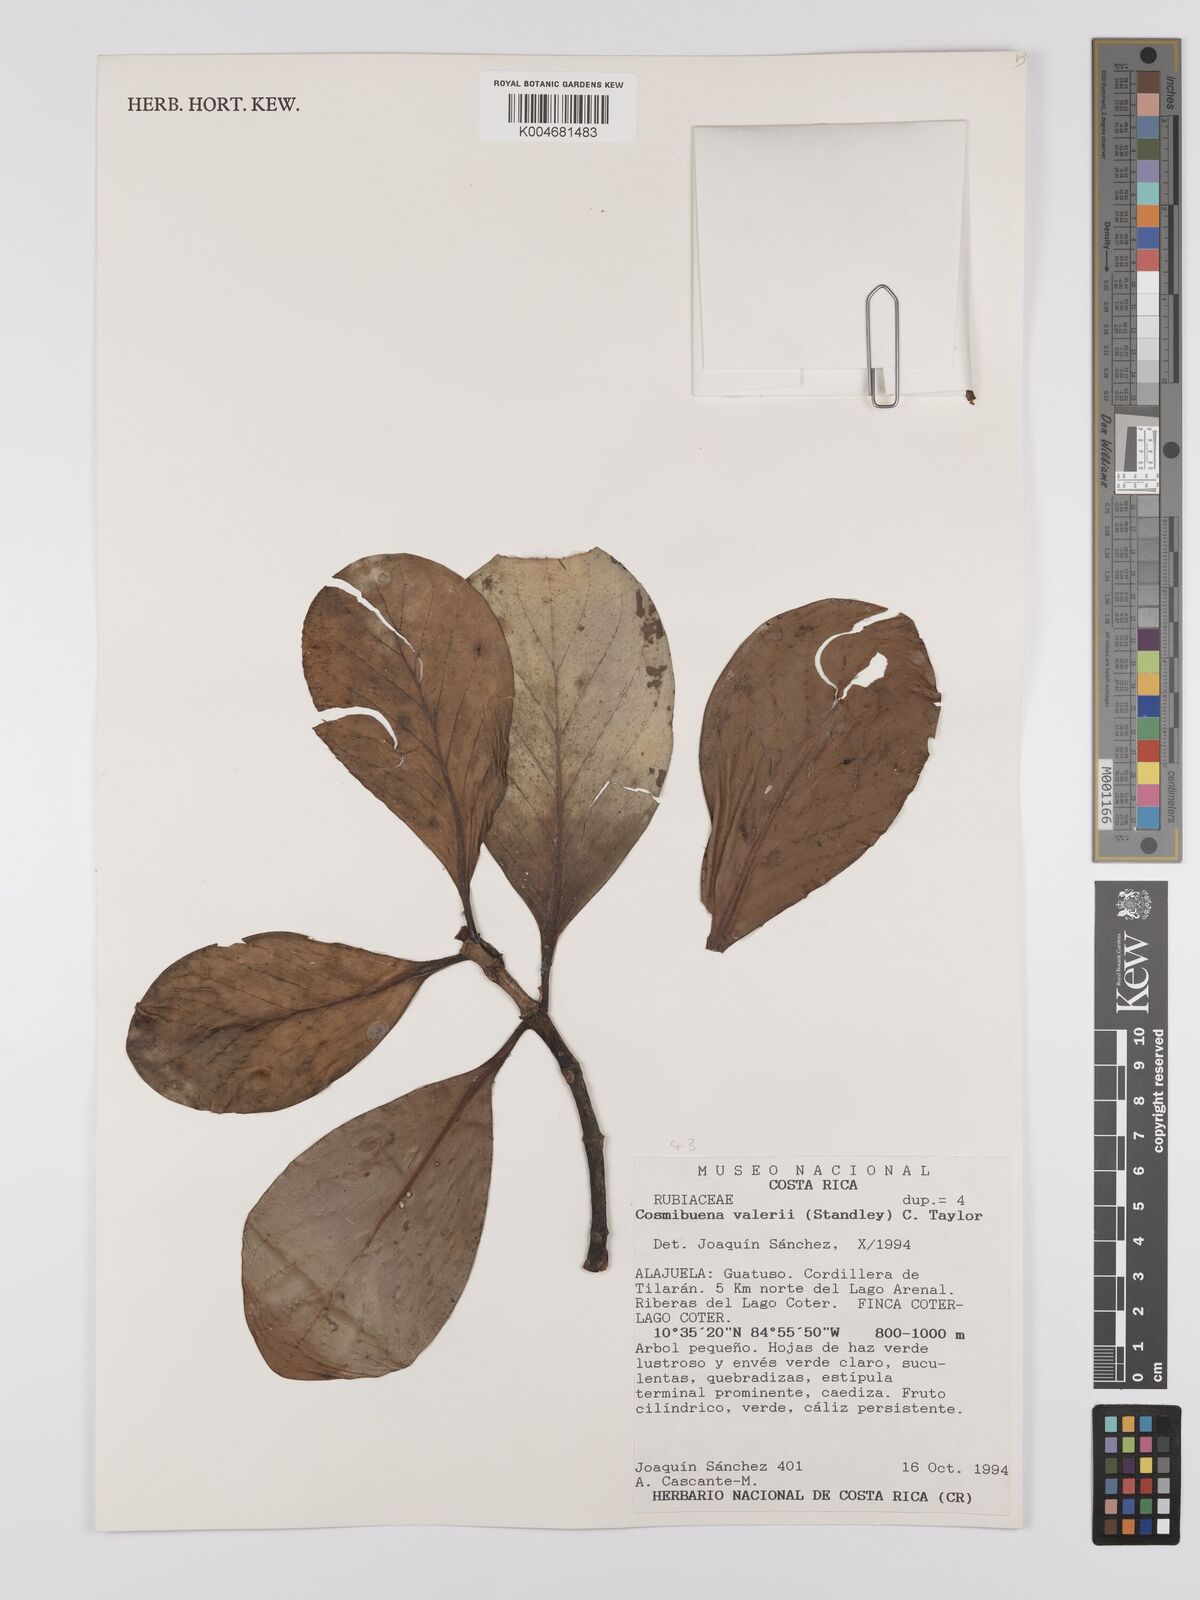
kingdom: Plantae
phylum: Tracheophyta
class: Magnoliopsida
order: Gentianales
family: Rubiaceae
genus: Cosmibuena
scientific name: Cosmibuena valerii
